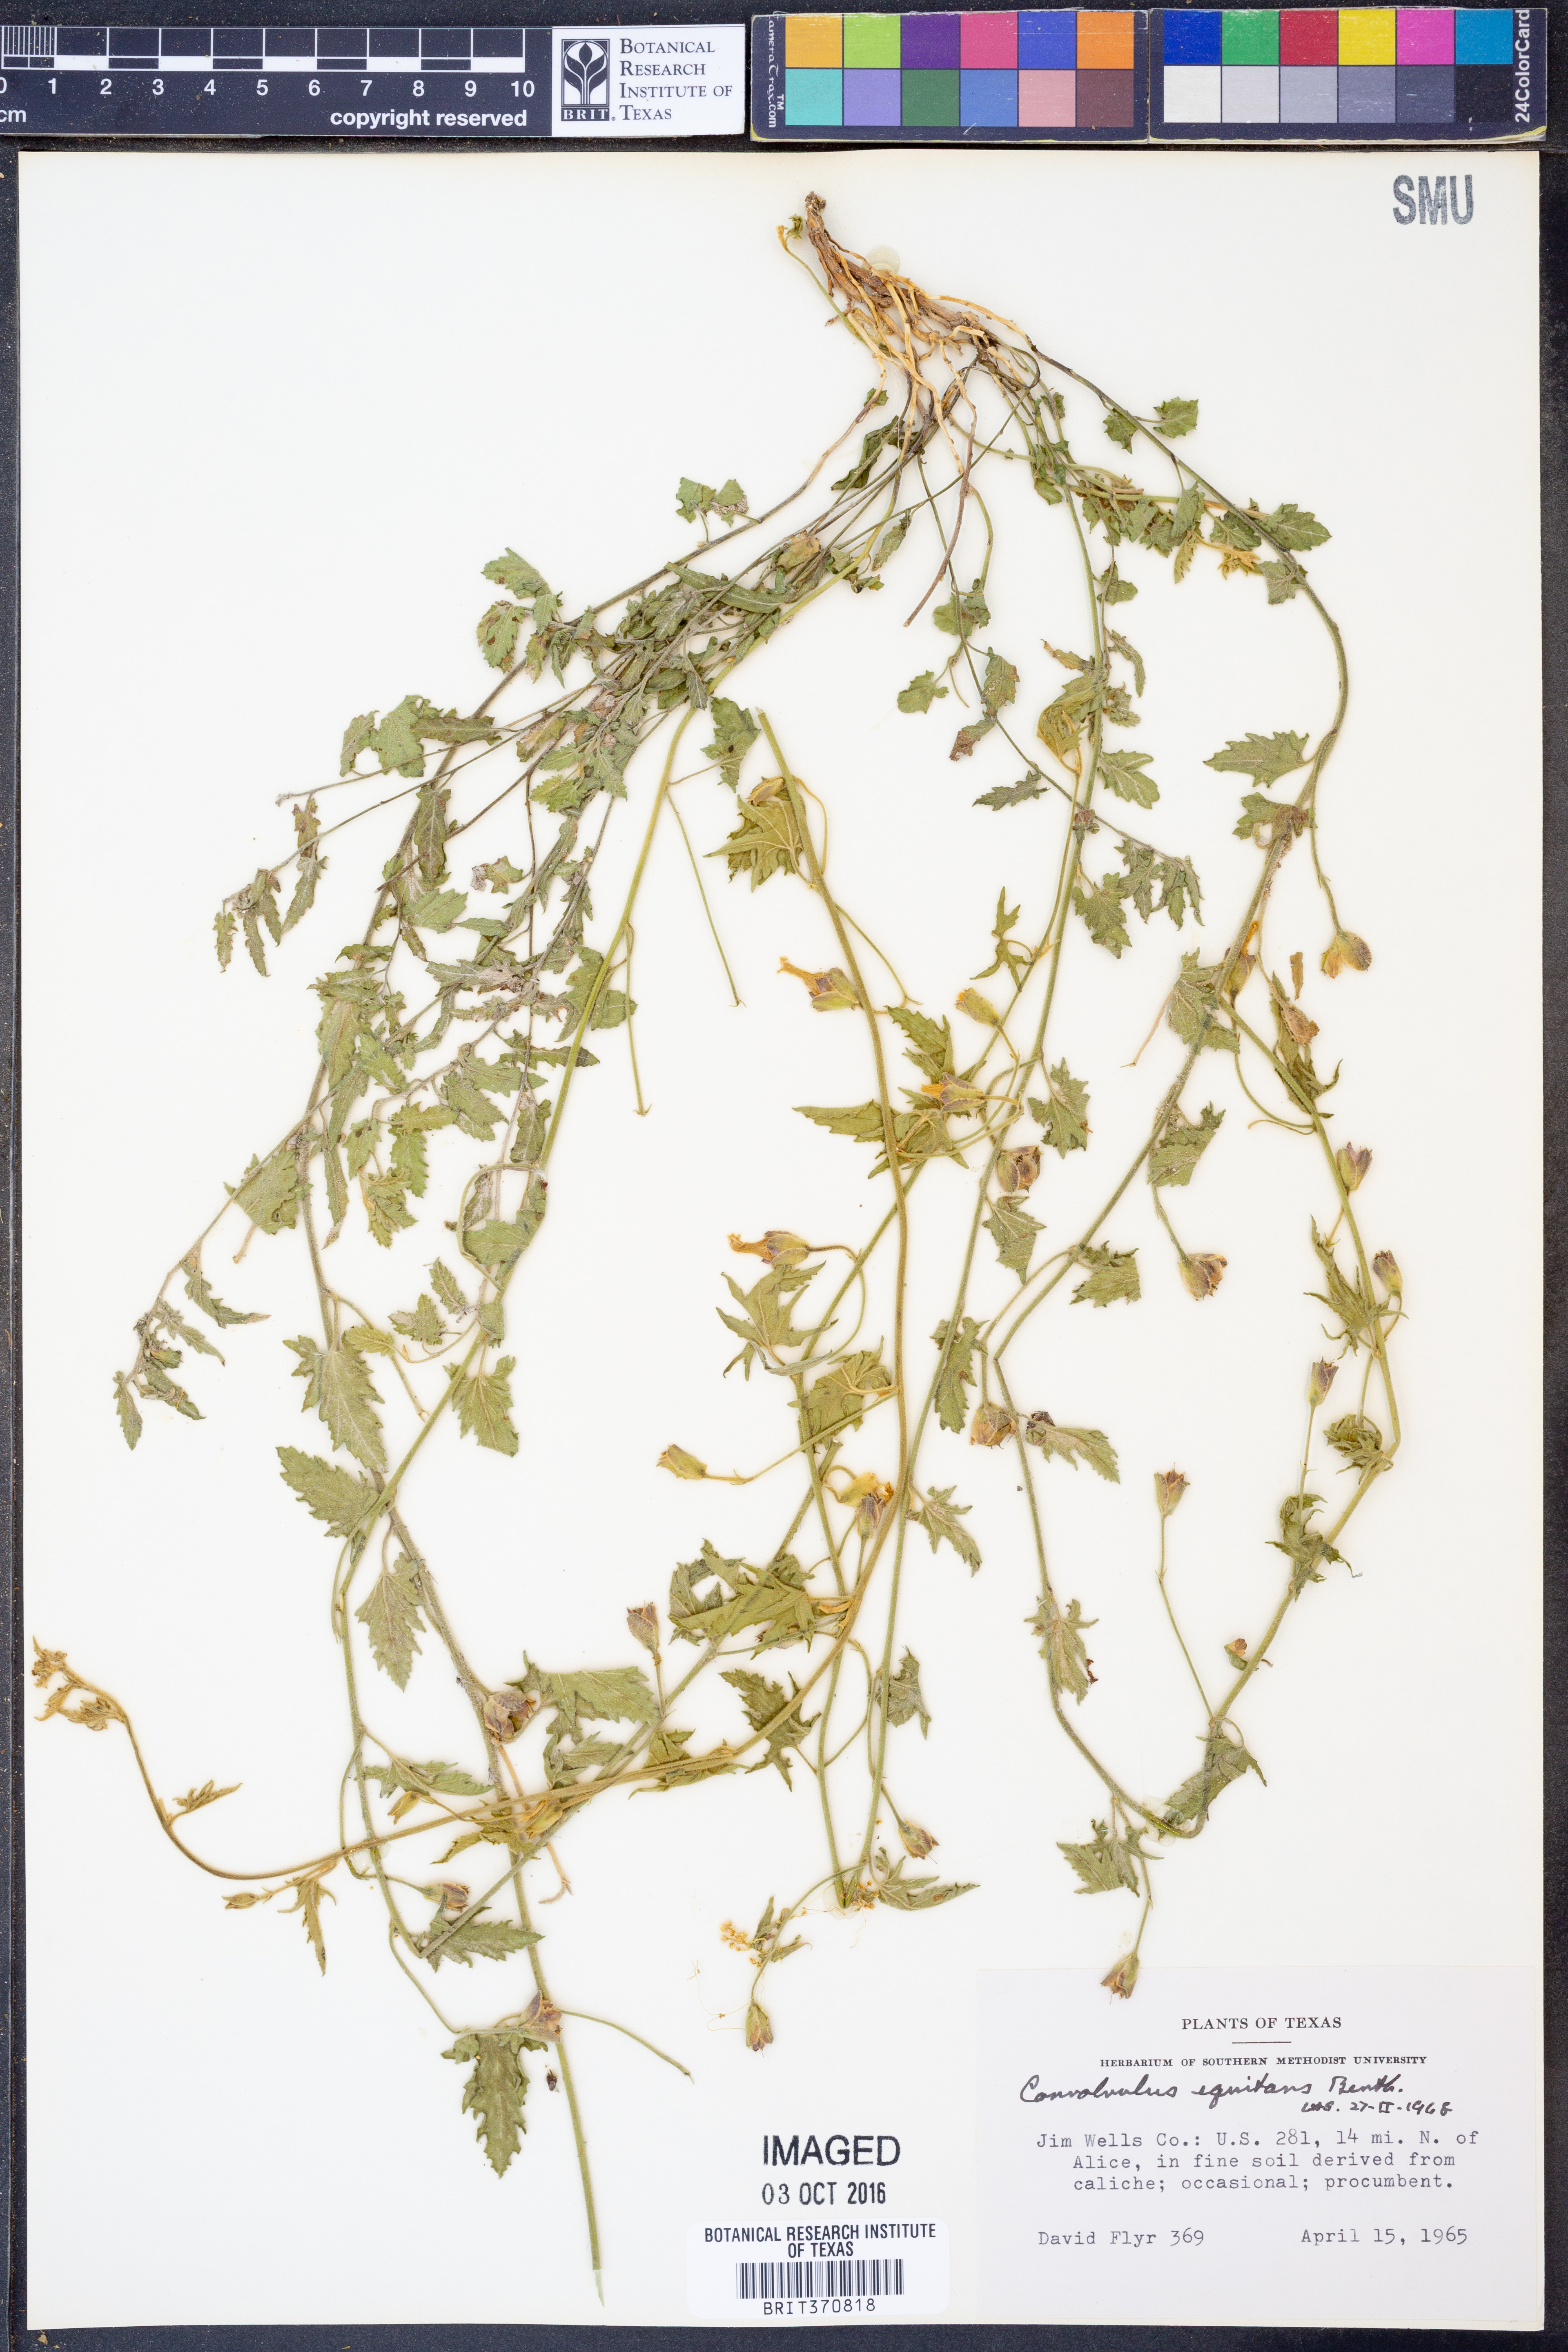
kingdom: Plantae
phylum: Tracheophyta
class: Magnoliopsida
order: Solanales
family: Convolvulaceae
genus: Convolvulus
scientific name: Convolvulus equitans
